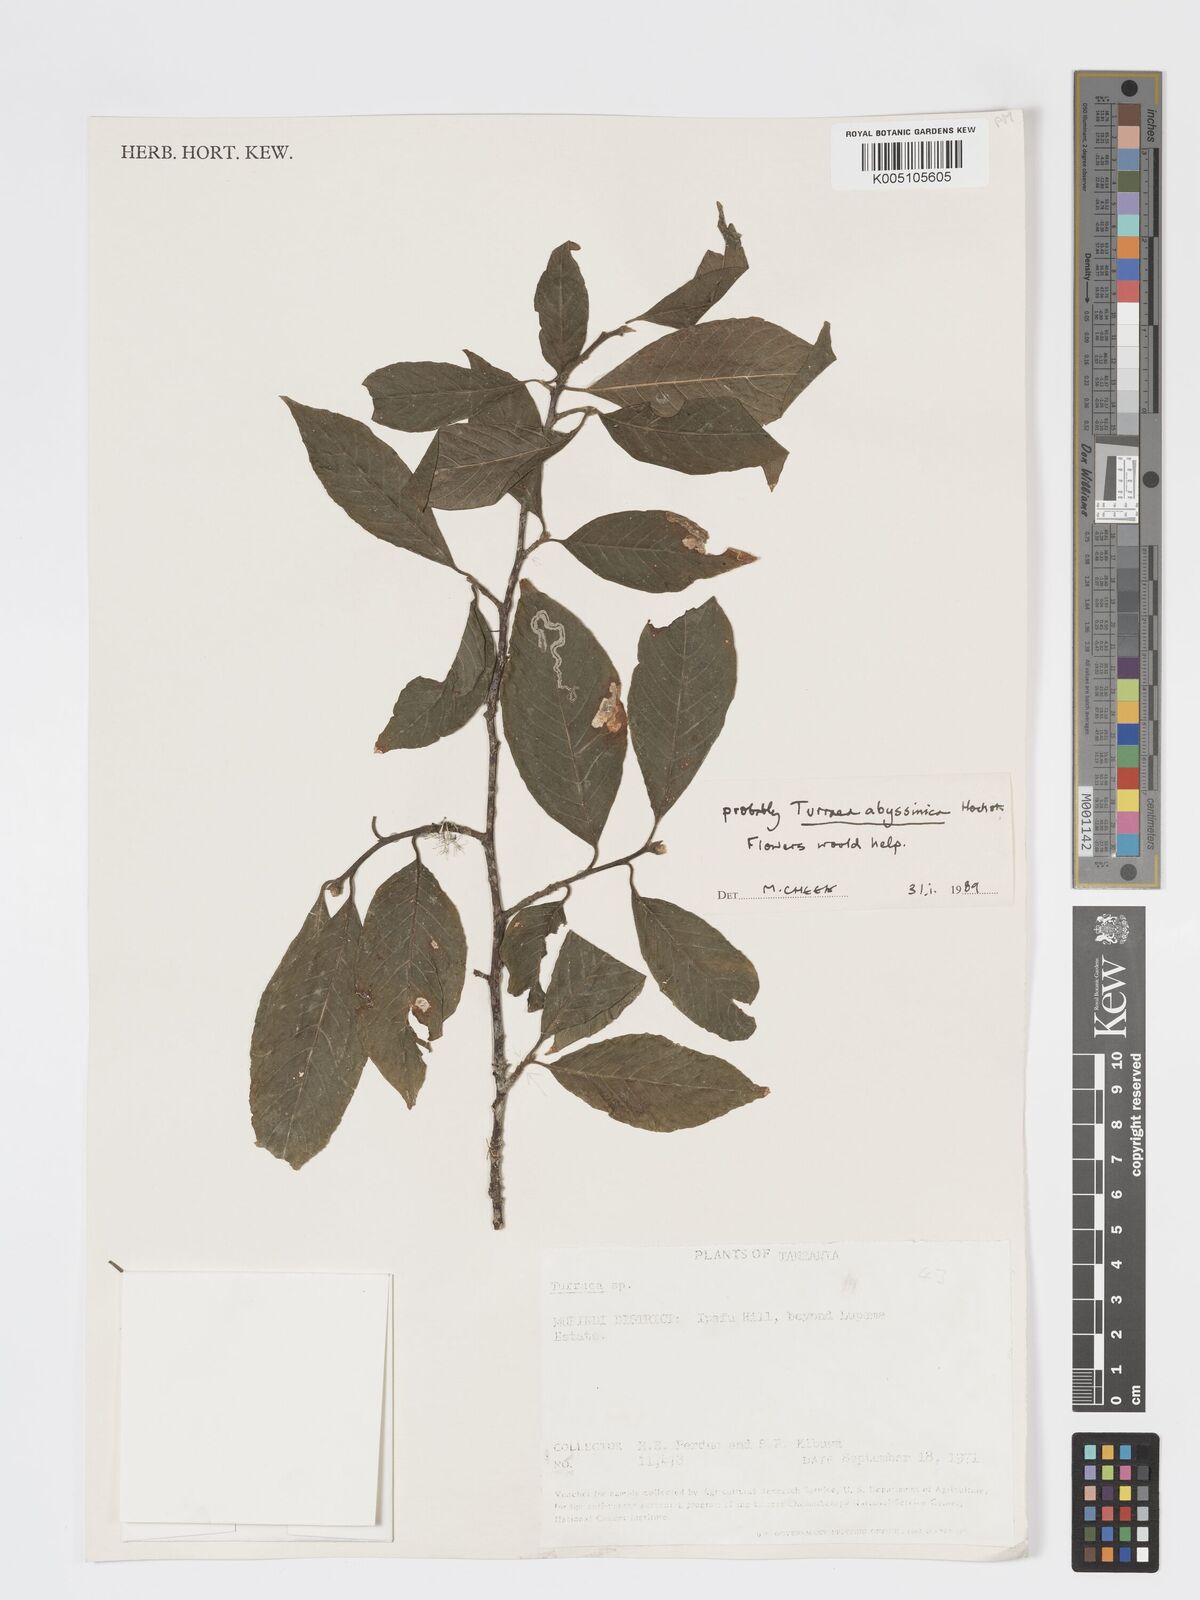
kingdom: Plantae
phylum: Tracheophyta
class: Magnoliopsida
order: Sapindales
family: Meliaceae
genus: Turraea
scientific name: Turraea abyssinica
